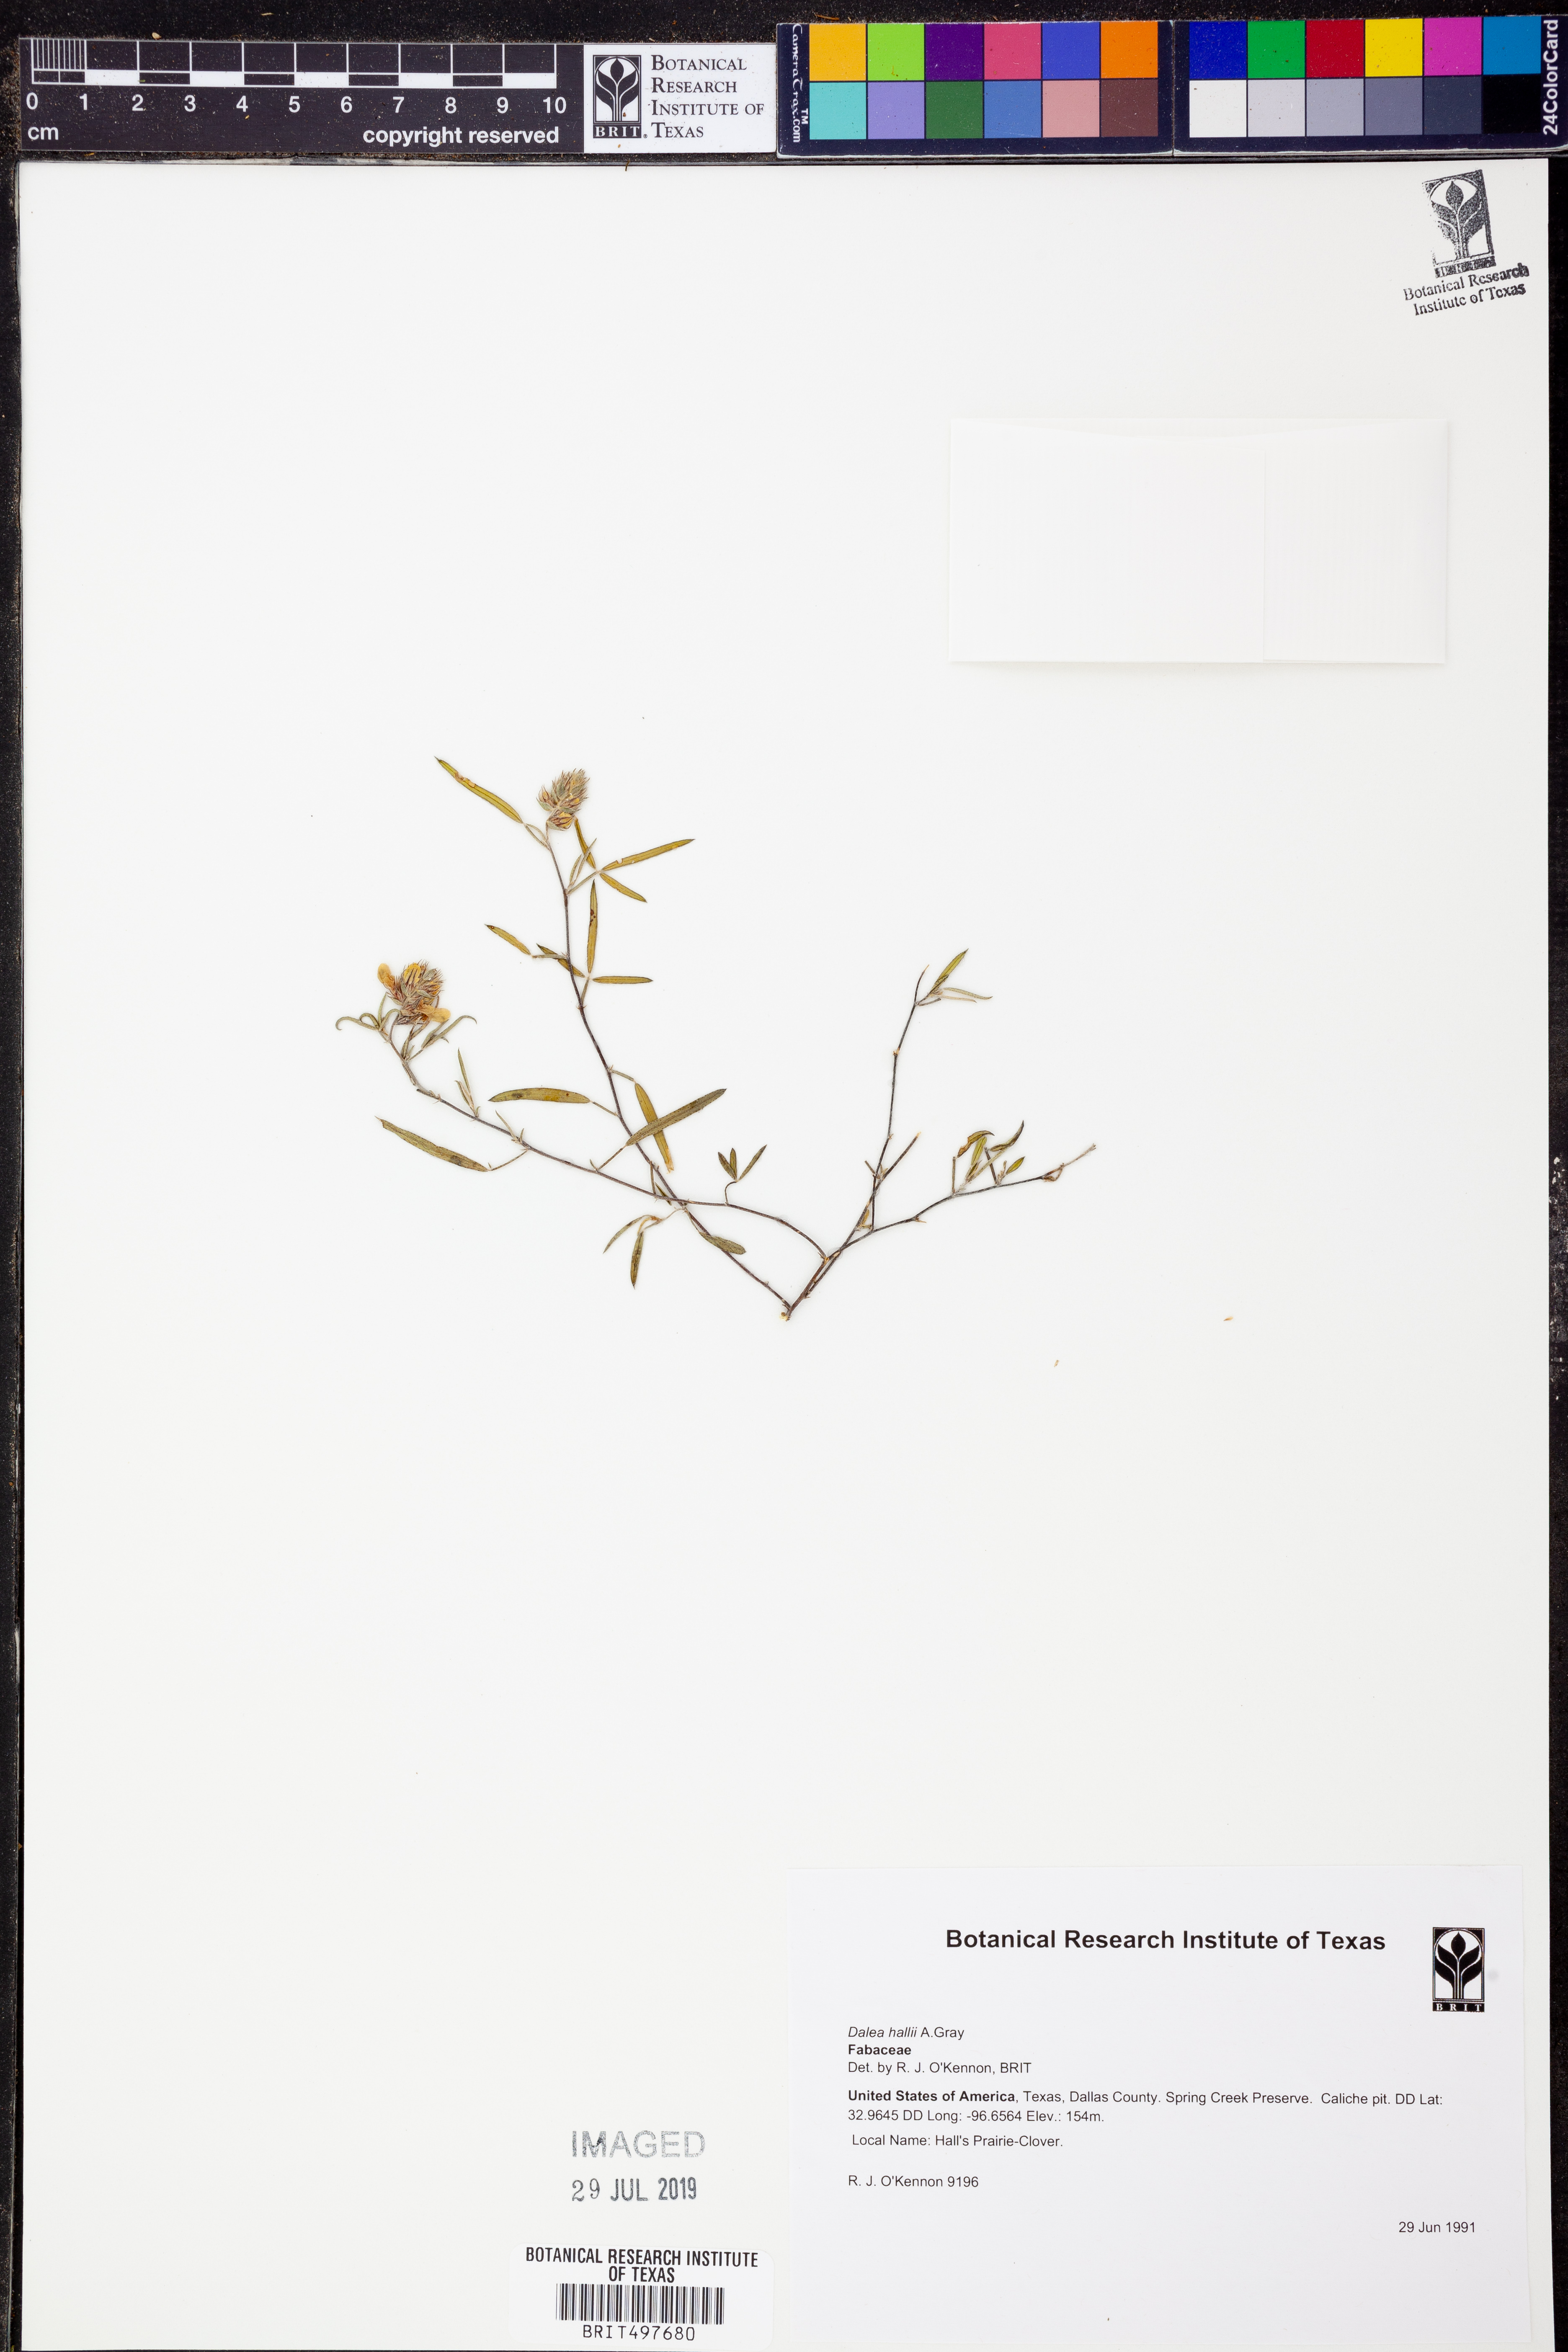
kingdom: Plantae
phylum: Tracheophyta
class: Magnoliopsida
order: Fabales
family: Fabaceae
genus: Dalea
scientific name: Dalea hallii
